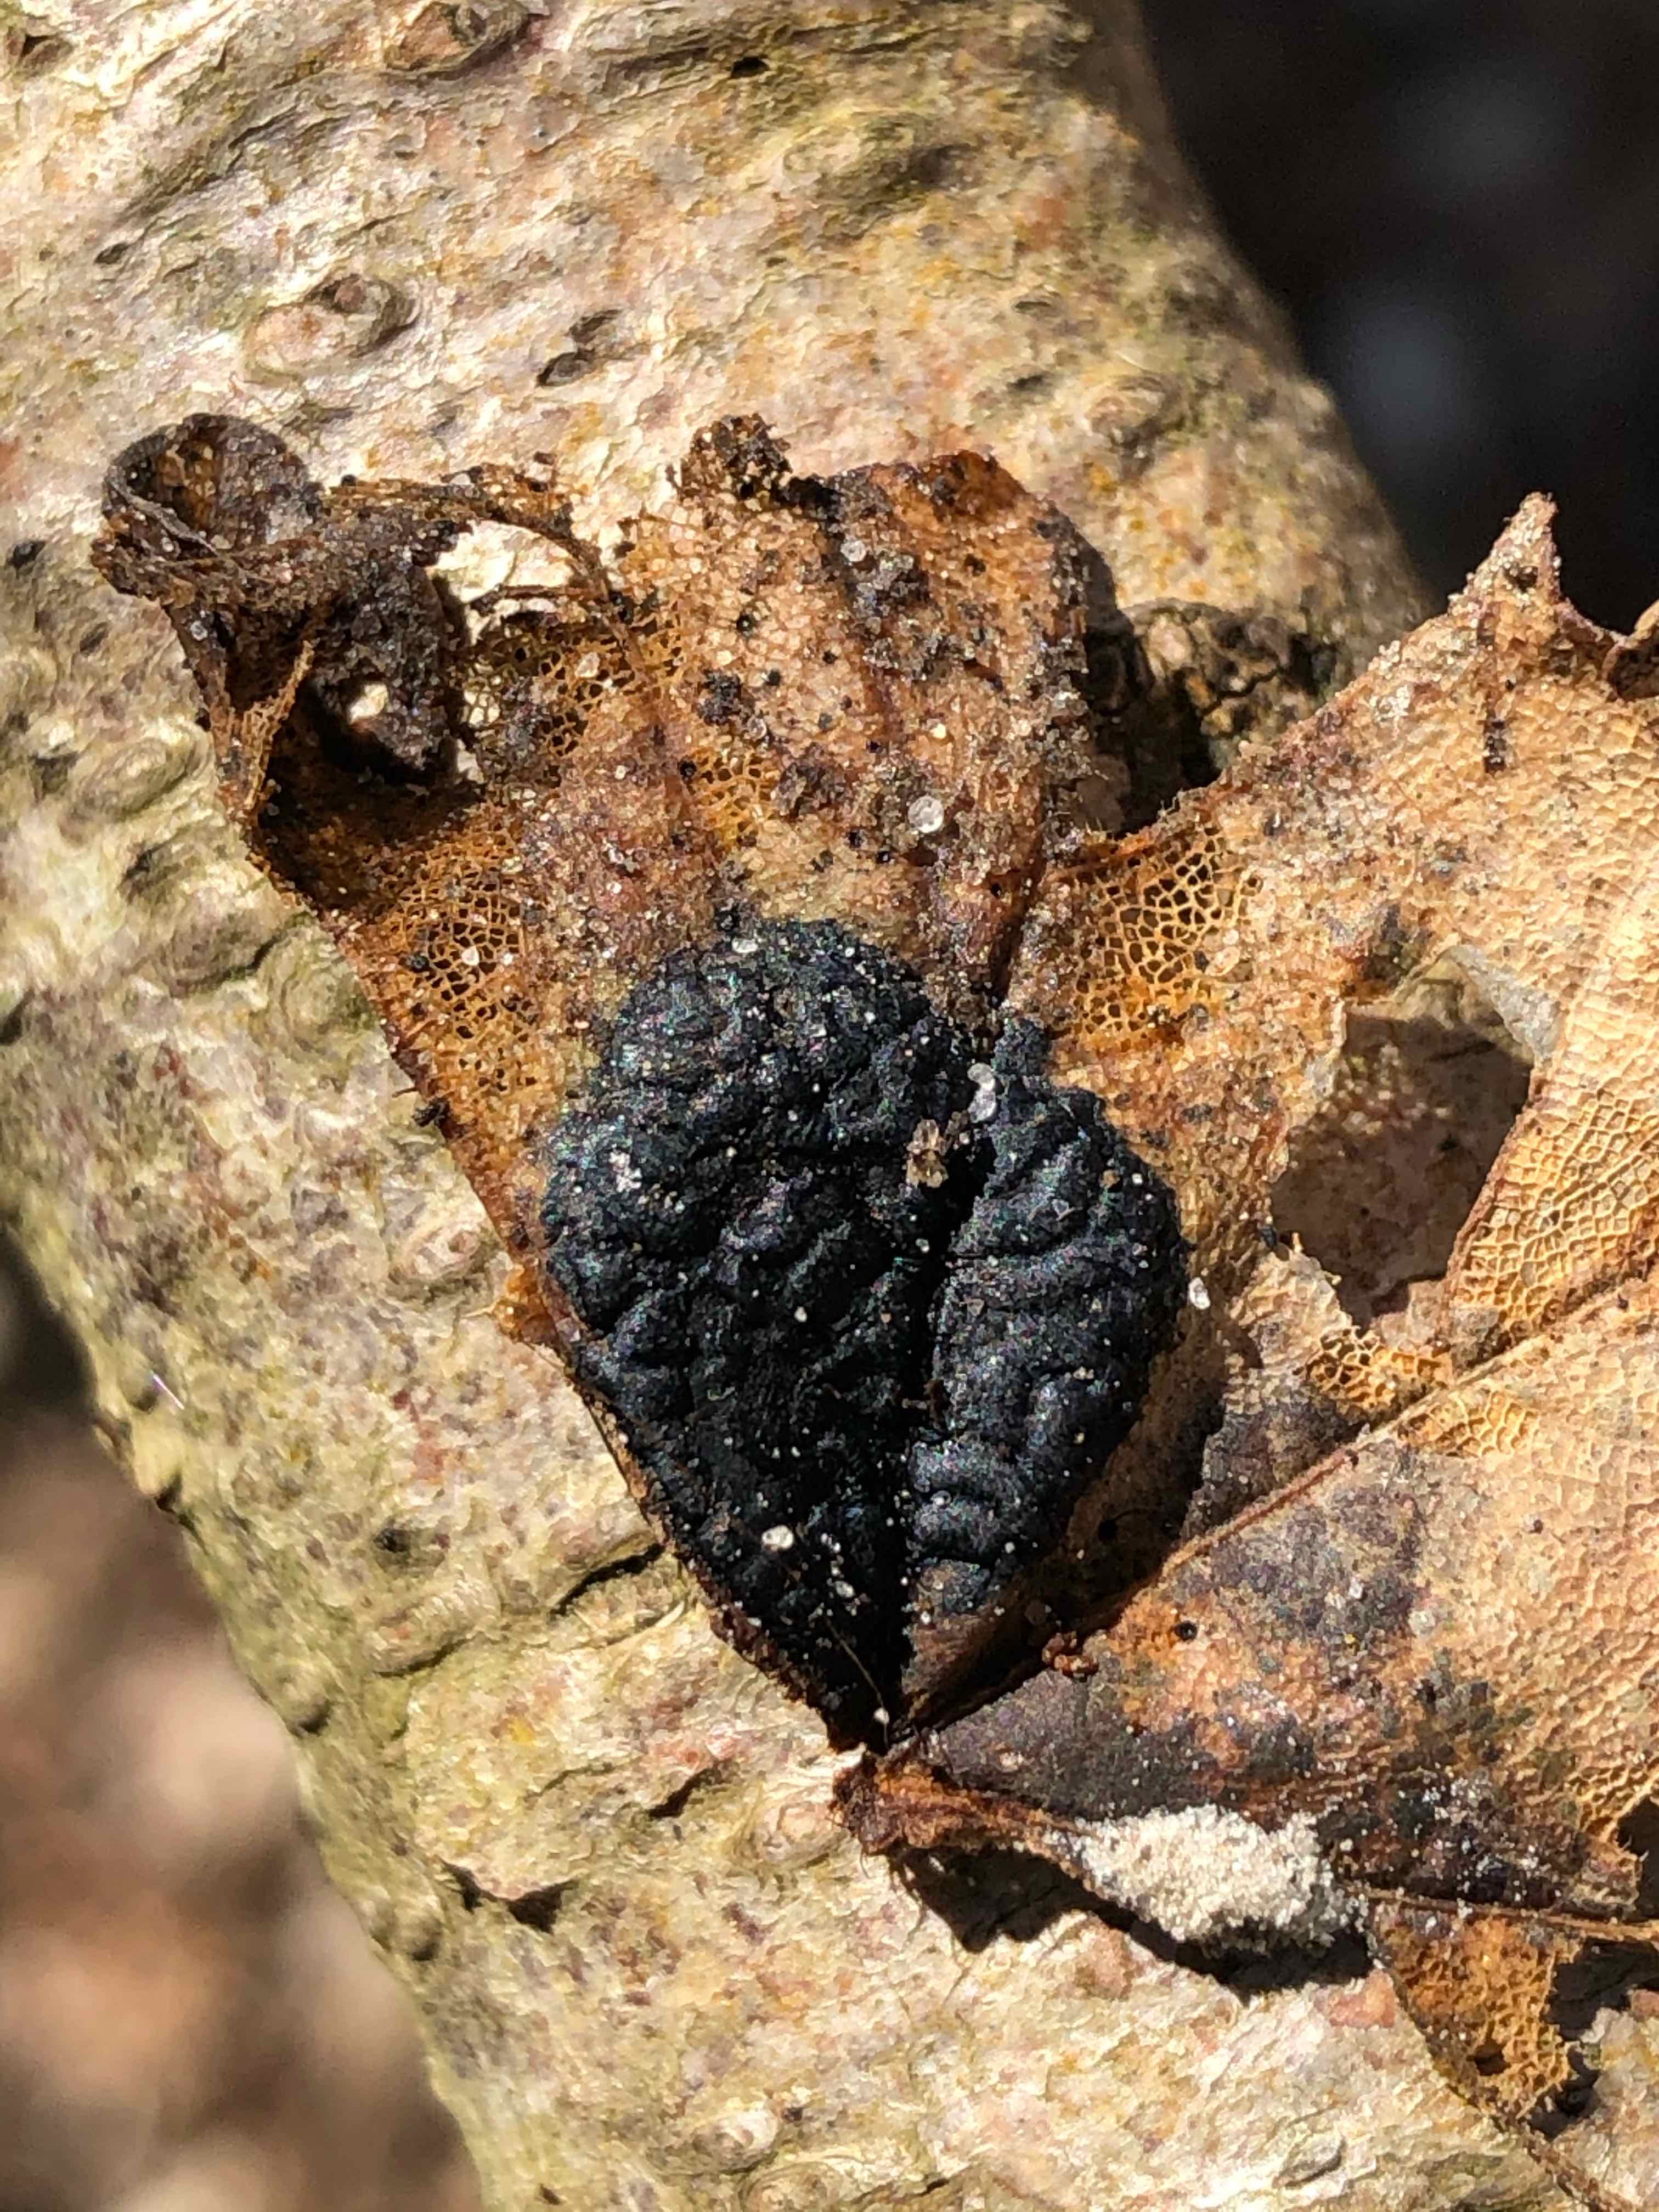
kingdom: Fungi
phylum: Ascomycota
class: Leotiomycetes
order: Rhytismatales
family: Rhytismataceae
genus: Rhytisma
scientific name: Rhytisma acerinum
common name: ahorn-rynkeplet
